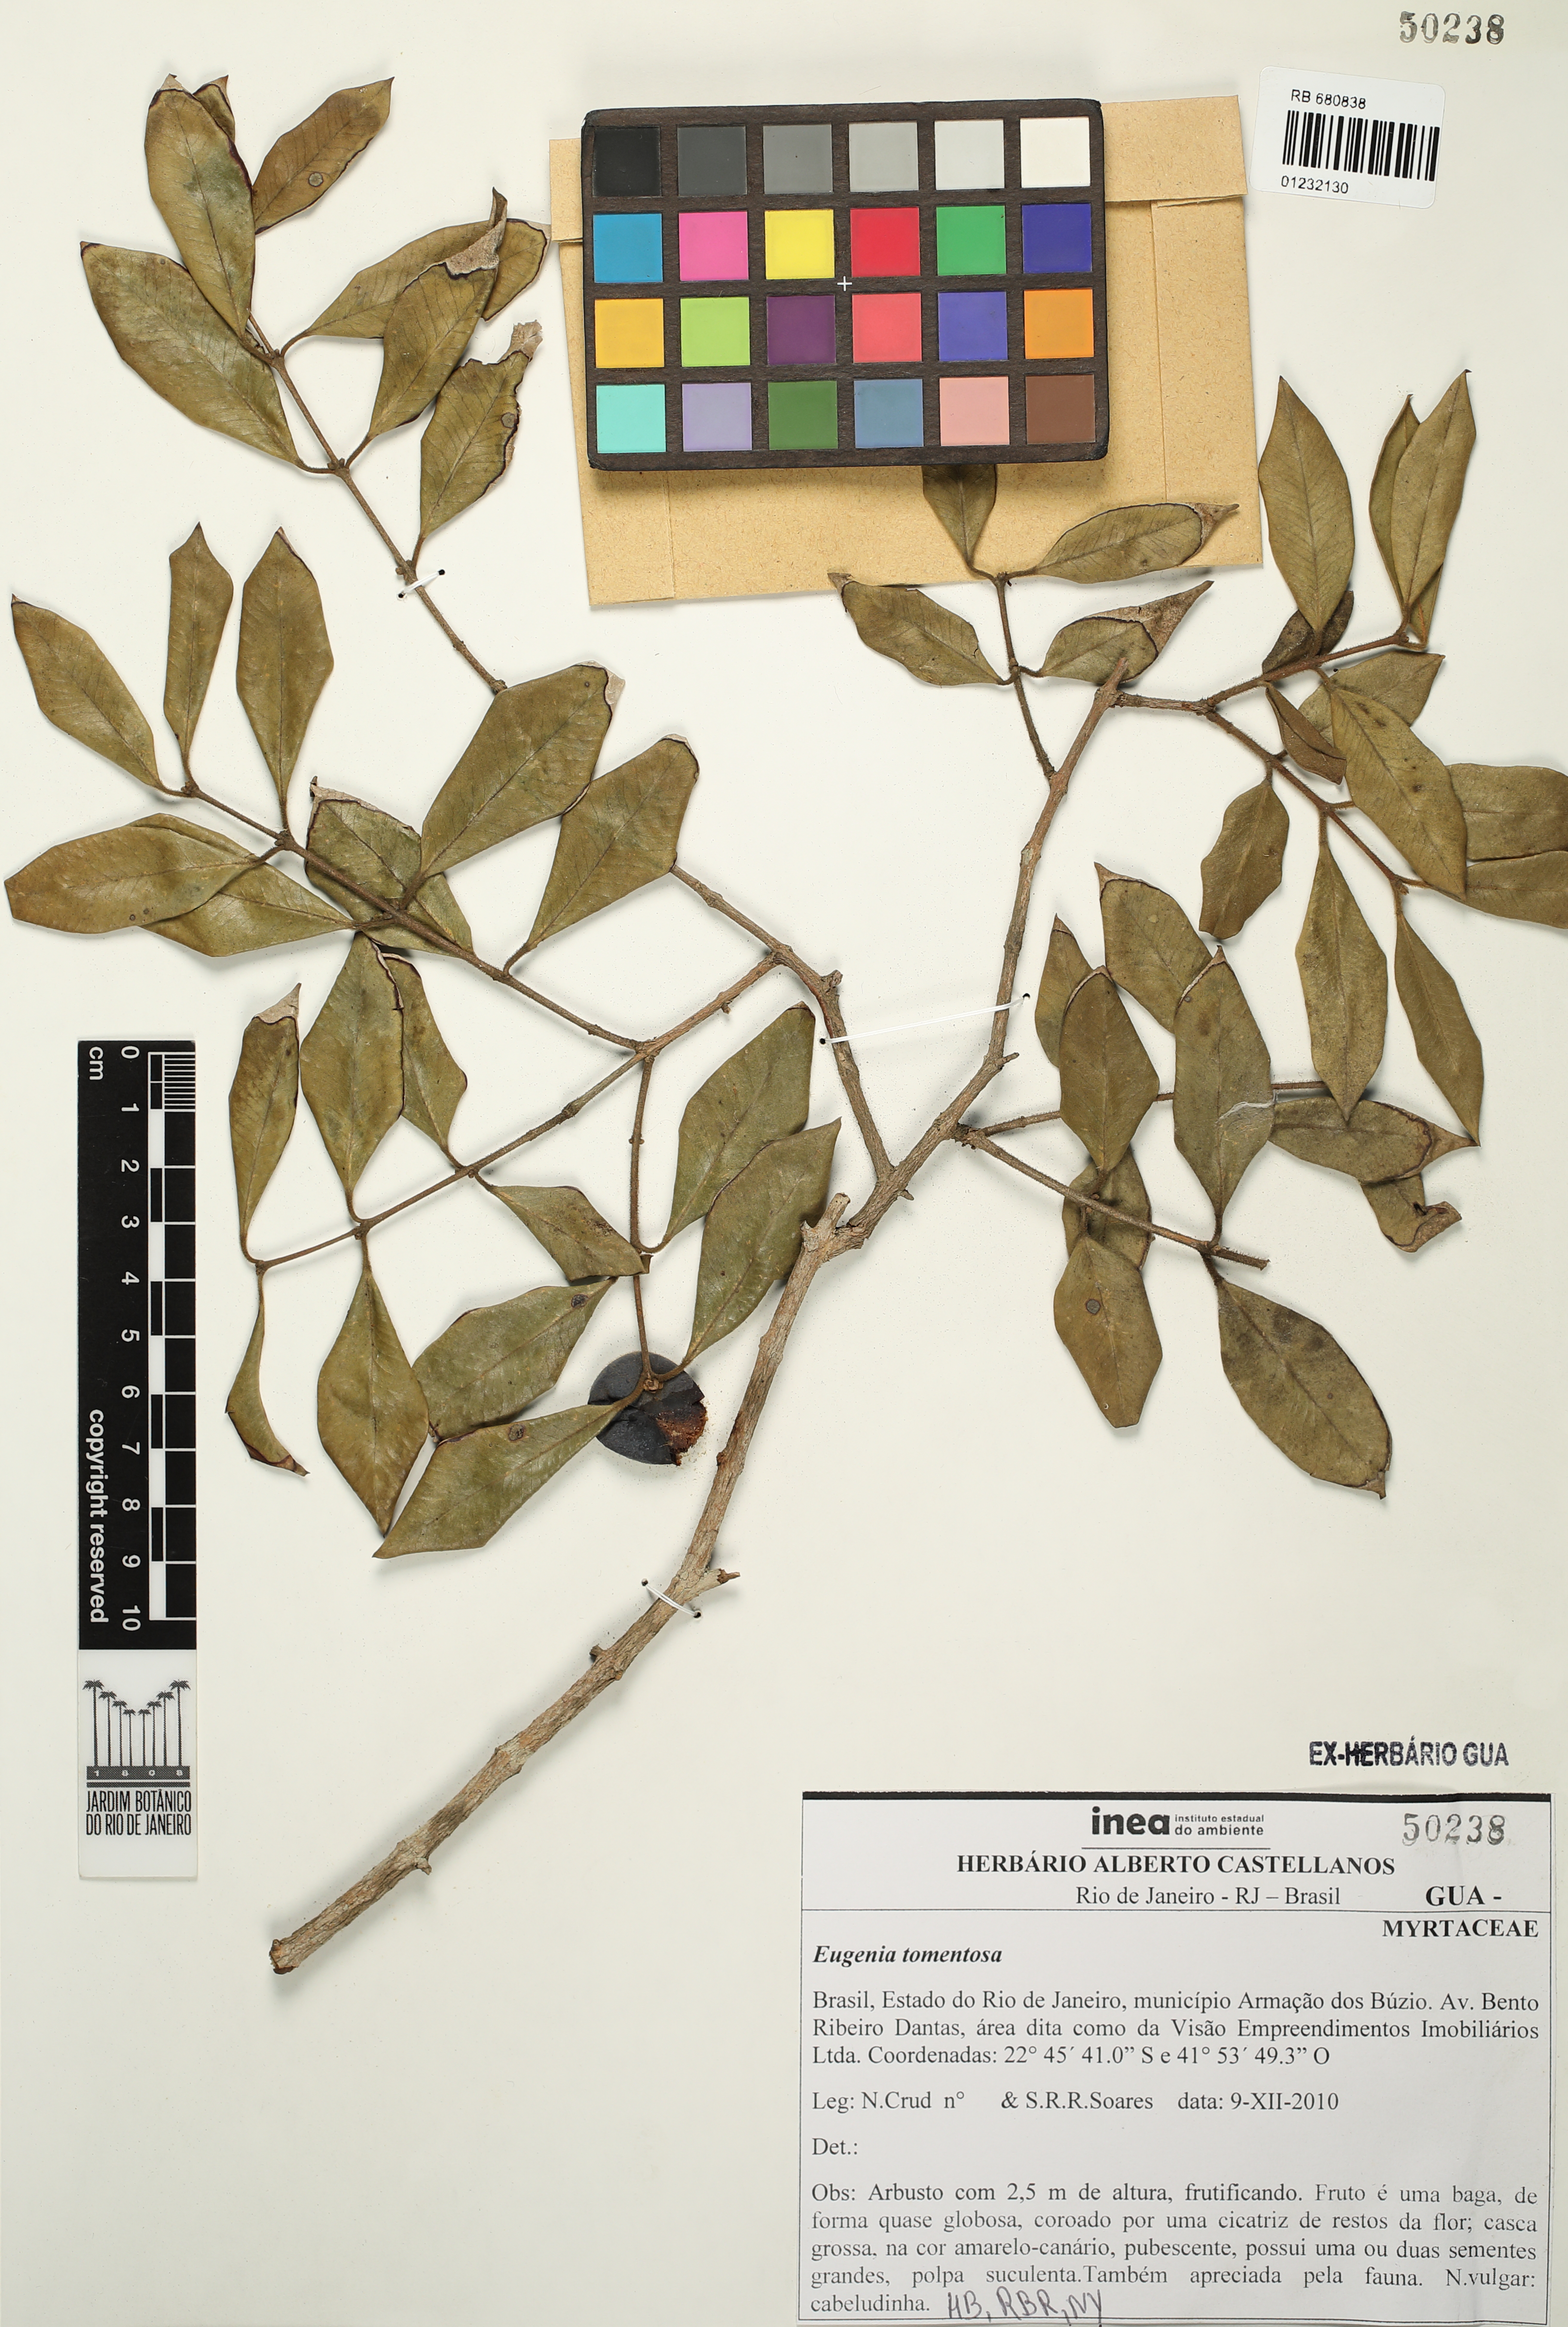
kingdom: Plantae
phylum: Tracheophyta
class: Magnoliopsida
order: Myrtales
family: Myrtaceae
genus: Myrcia
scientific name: Myrcia tomentosa
